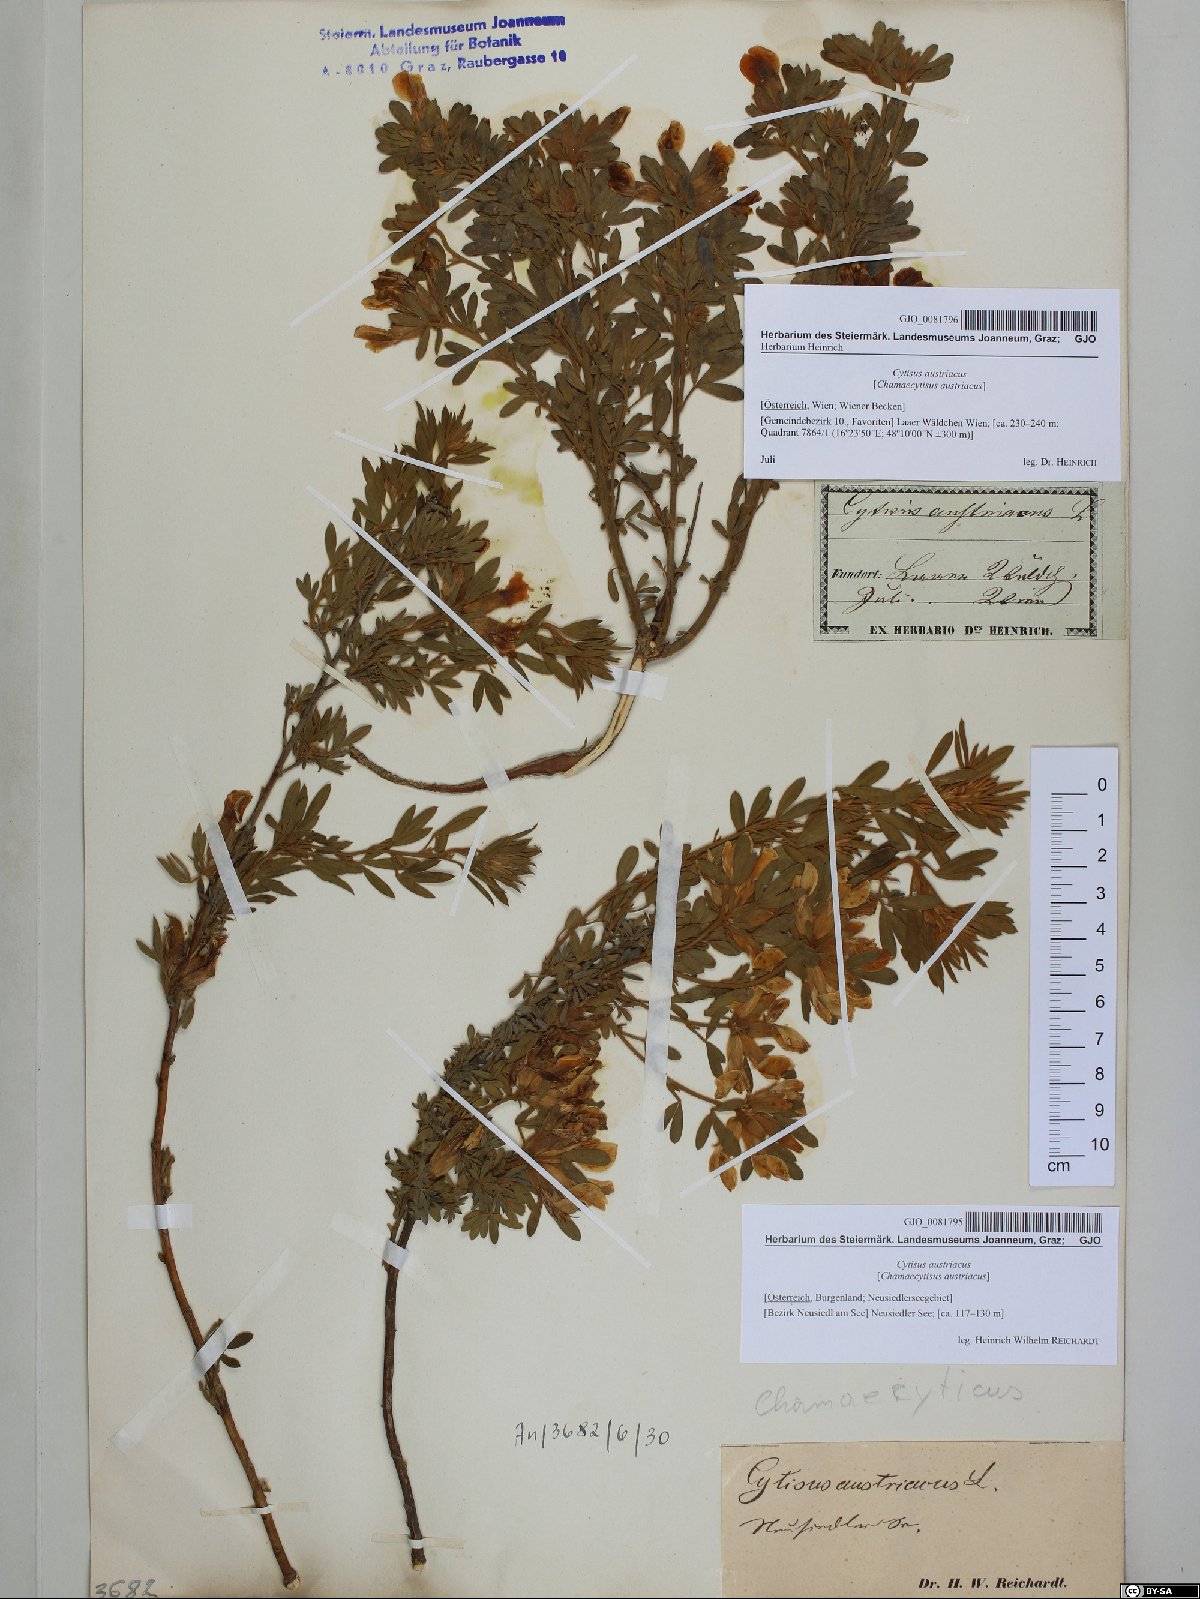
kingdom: Plantae
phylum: Tracheophyta
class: Magnoliopsida
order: Fabales
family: Fabaceae
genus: Chamaecytisus
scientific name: Chamaecytisus austriacus
